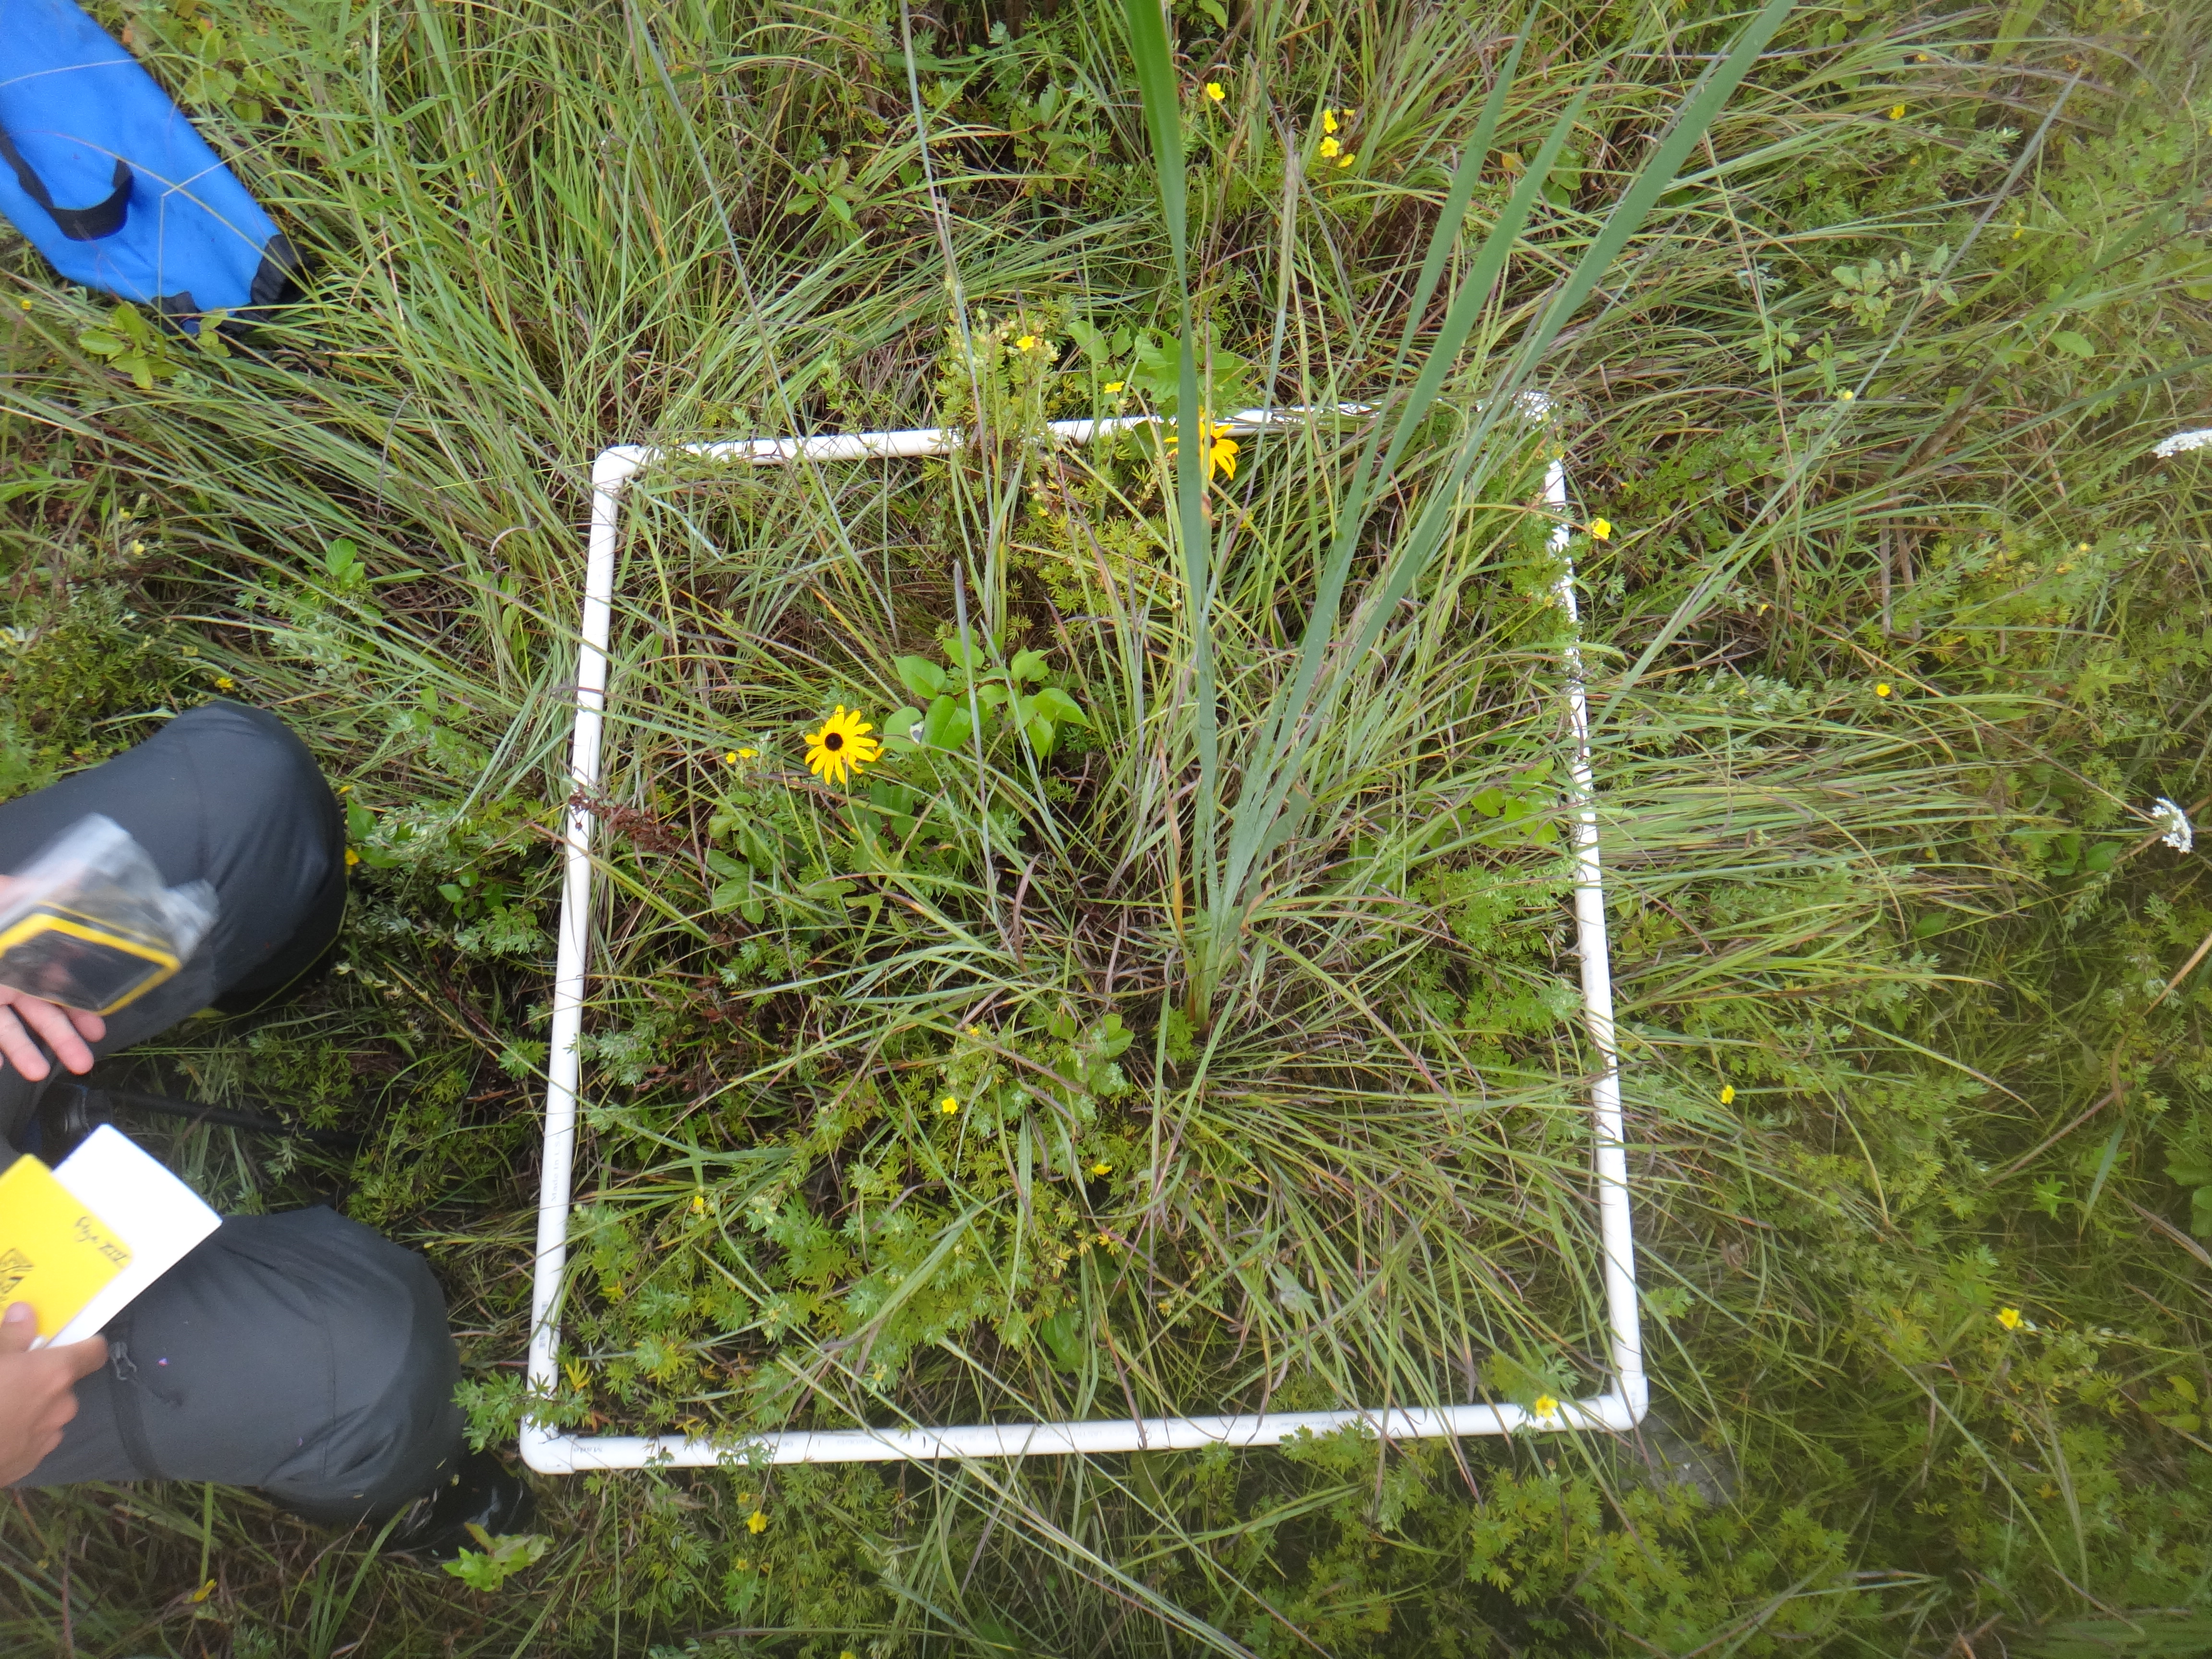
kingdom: Plantae
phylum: Tracheophyta
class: Magnoliopsida
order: Asterales
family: Asteraceae
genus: Rudbeckia
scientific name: Rudbeckia hirta
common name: Black-eyed-susan
